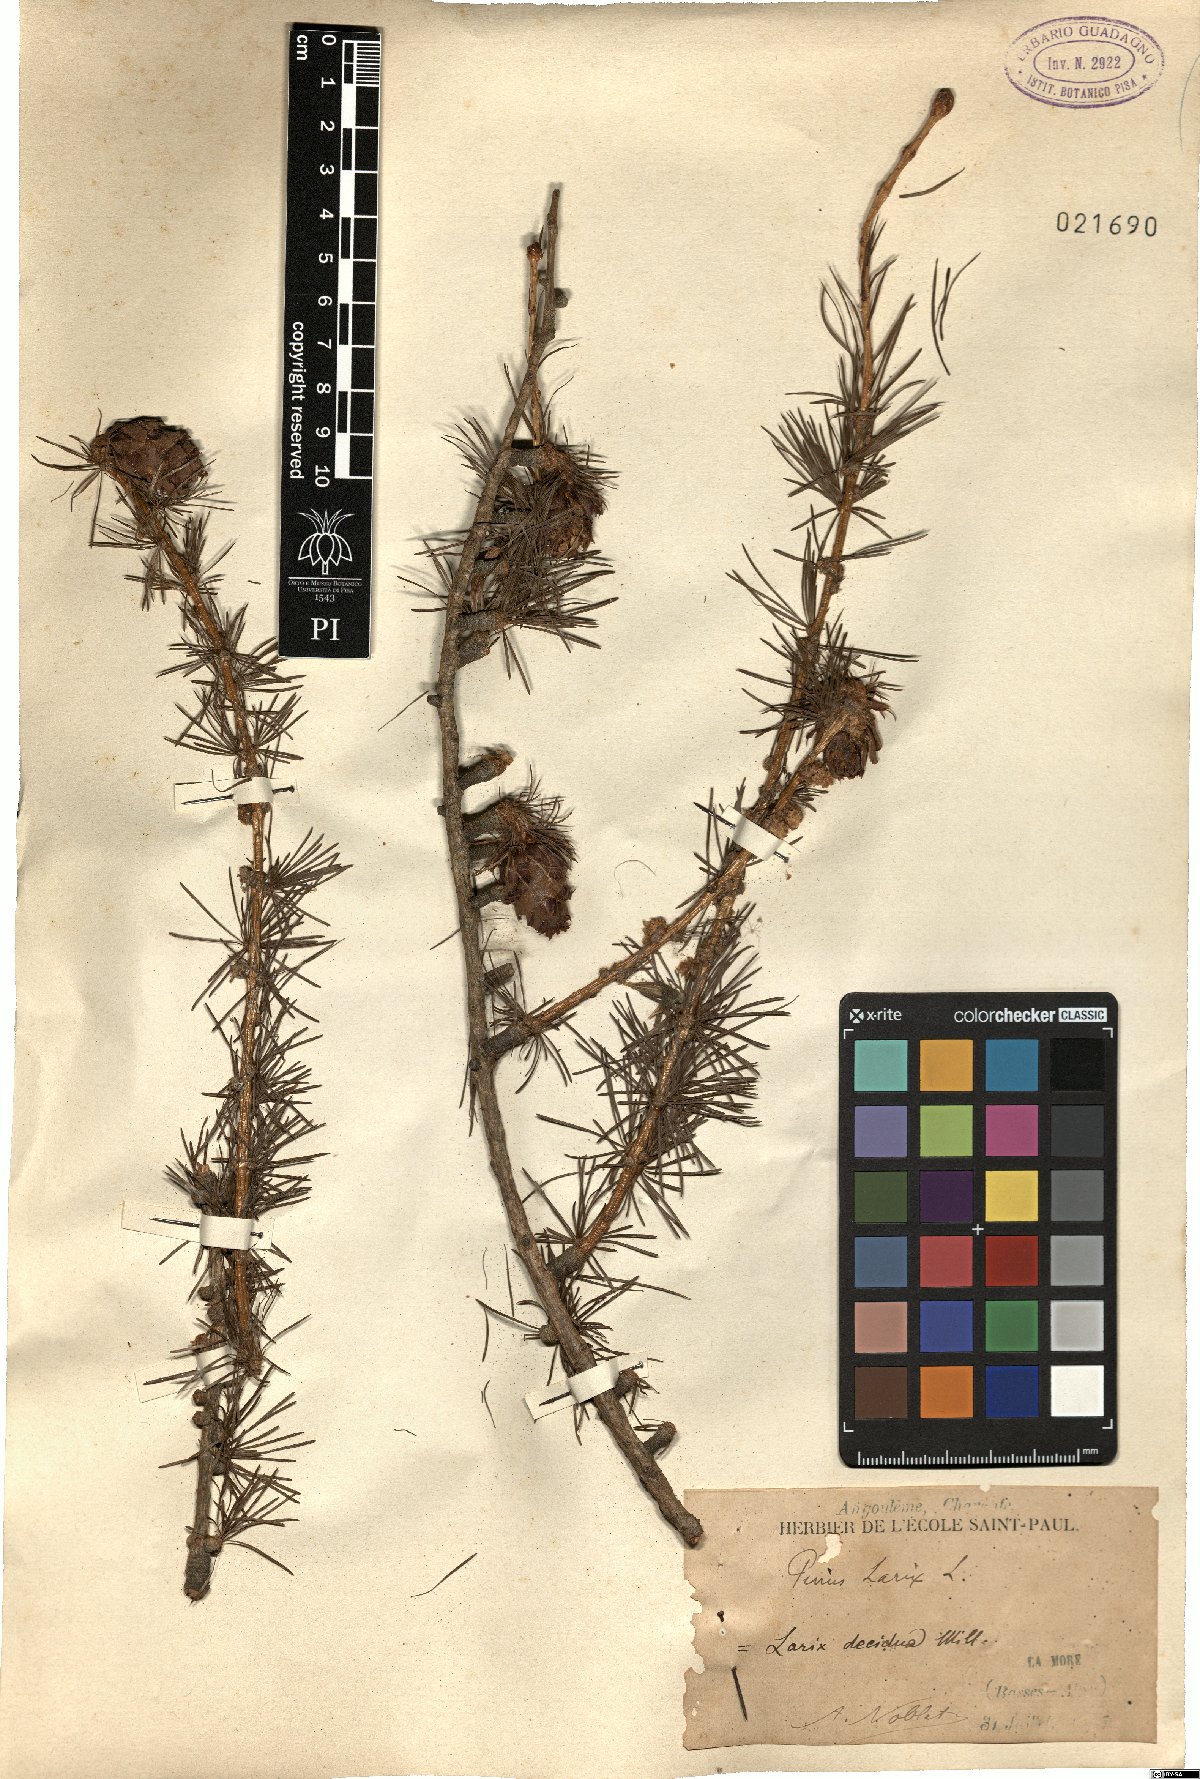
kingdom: Plantae
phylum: Tracheophyta
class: Pinopsida
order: Pinales
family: Pinaceae
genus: Larix
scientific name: Larix decidua
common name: European larch
